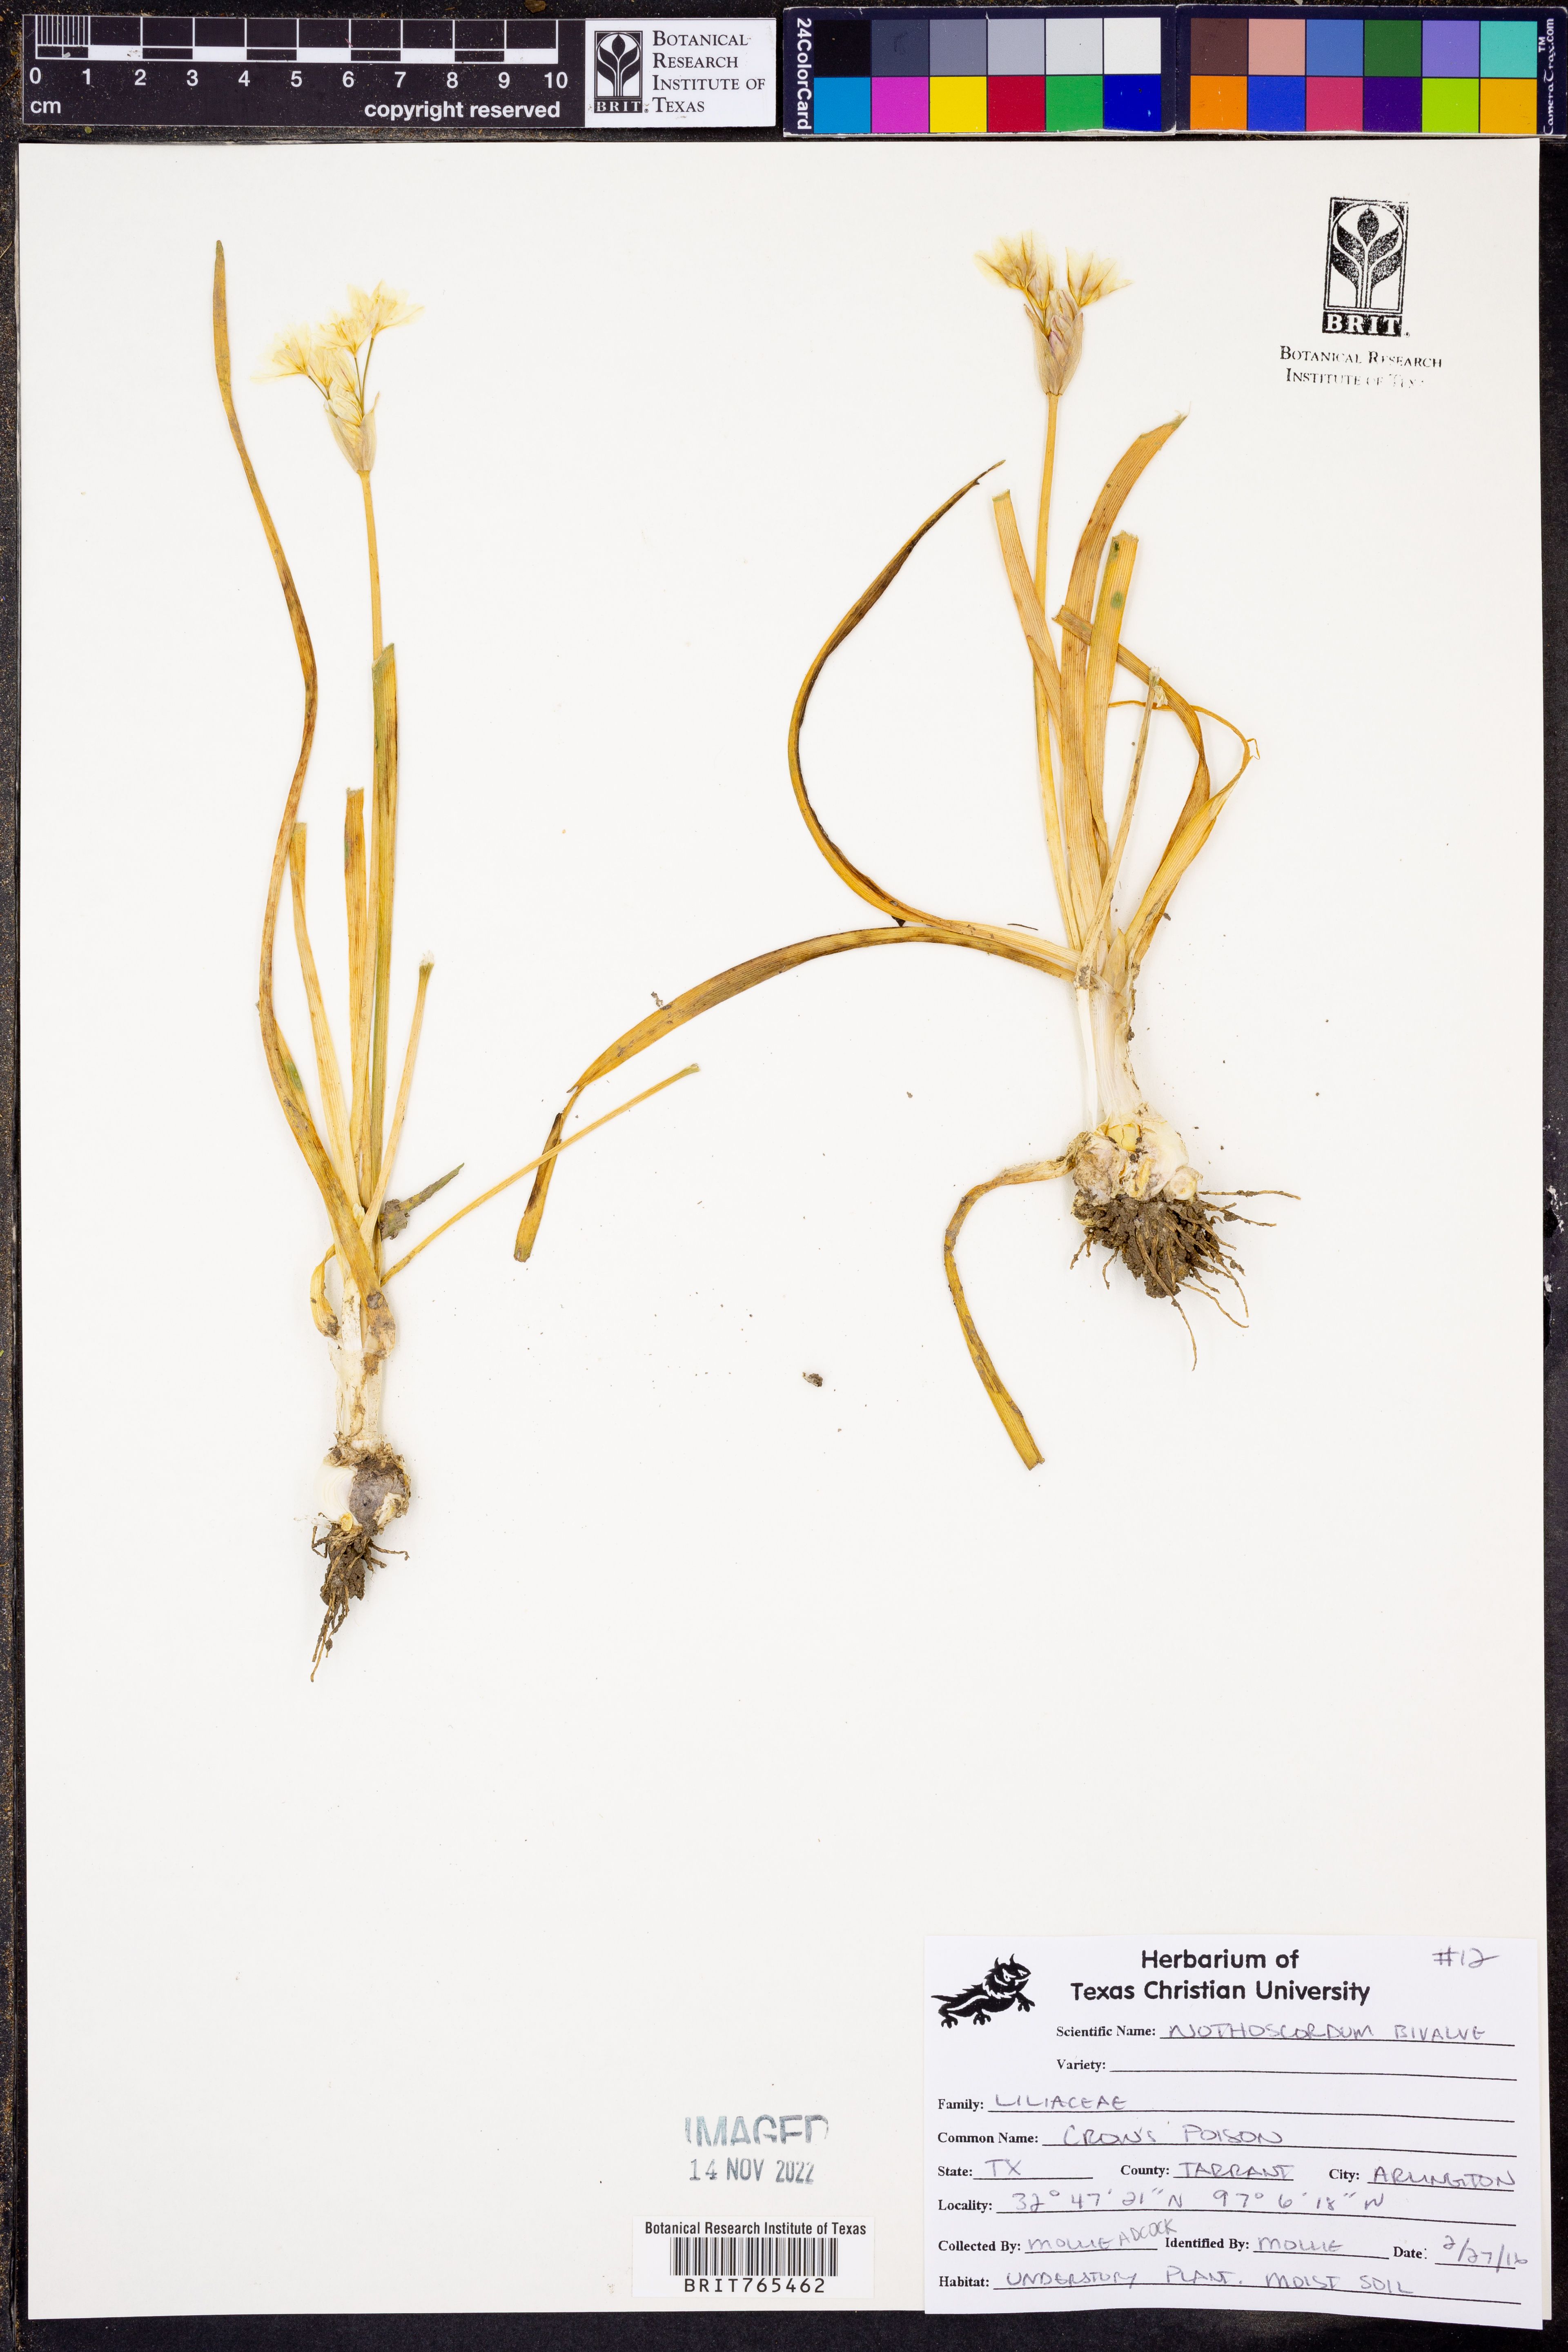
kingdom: Plantae
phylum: Tracheophyta
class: Liliopsida
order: Asparagales
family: Amaryllidaceae
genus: Nothoscordum
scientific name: Nothoscordum bivalve
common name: Crow-poison
